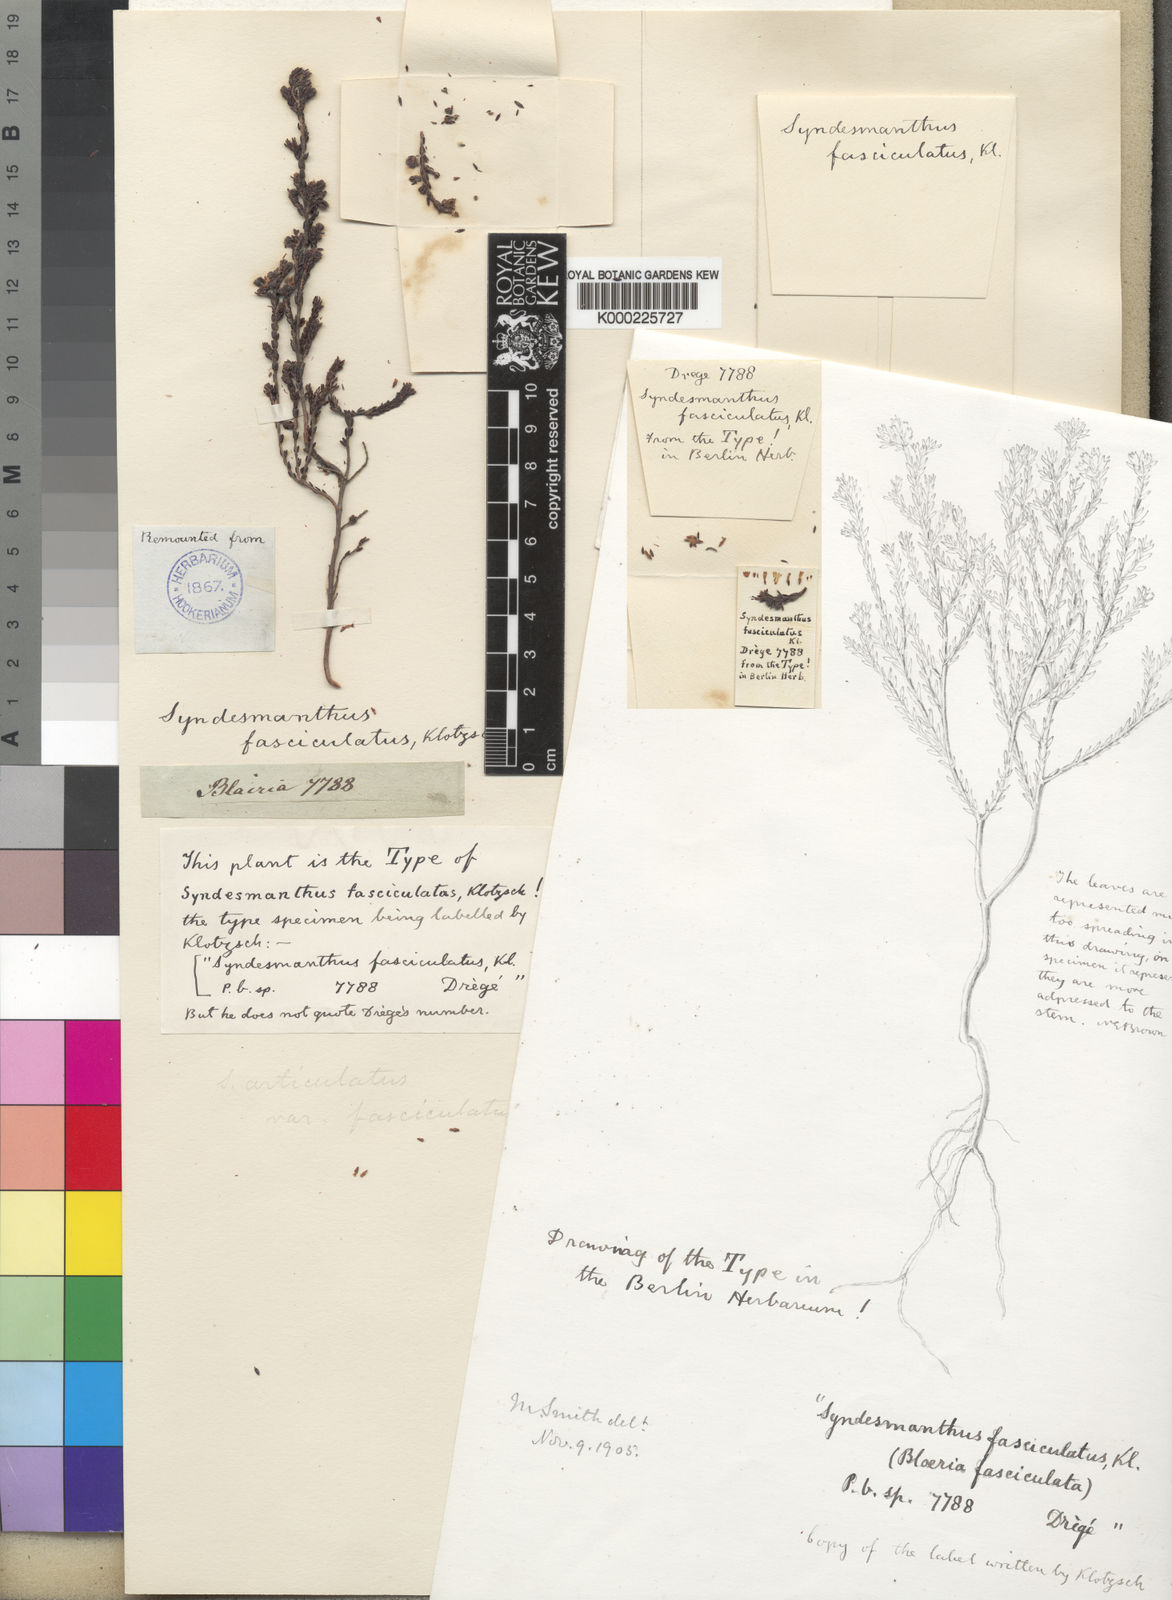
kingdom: Plantae
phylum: Tracheophyta
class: Magnoliopsida
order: Ericales
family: Ericaceae
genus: Erica
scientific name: Erica similis
